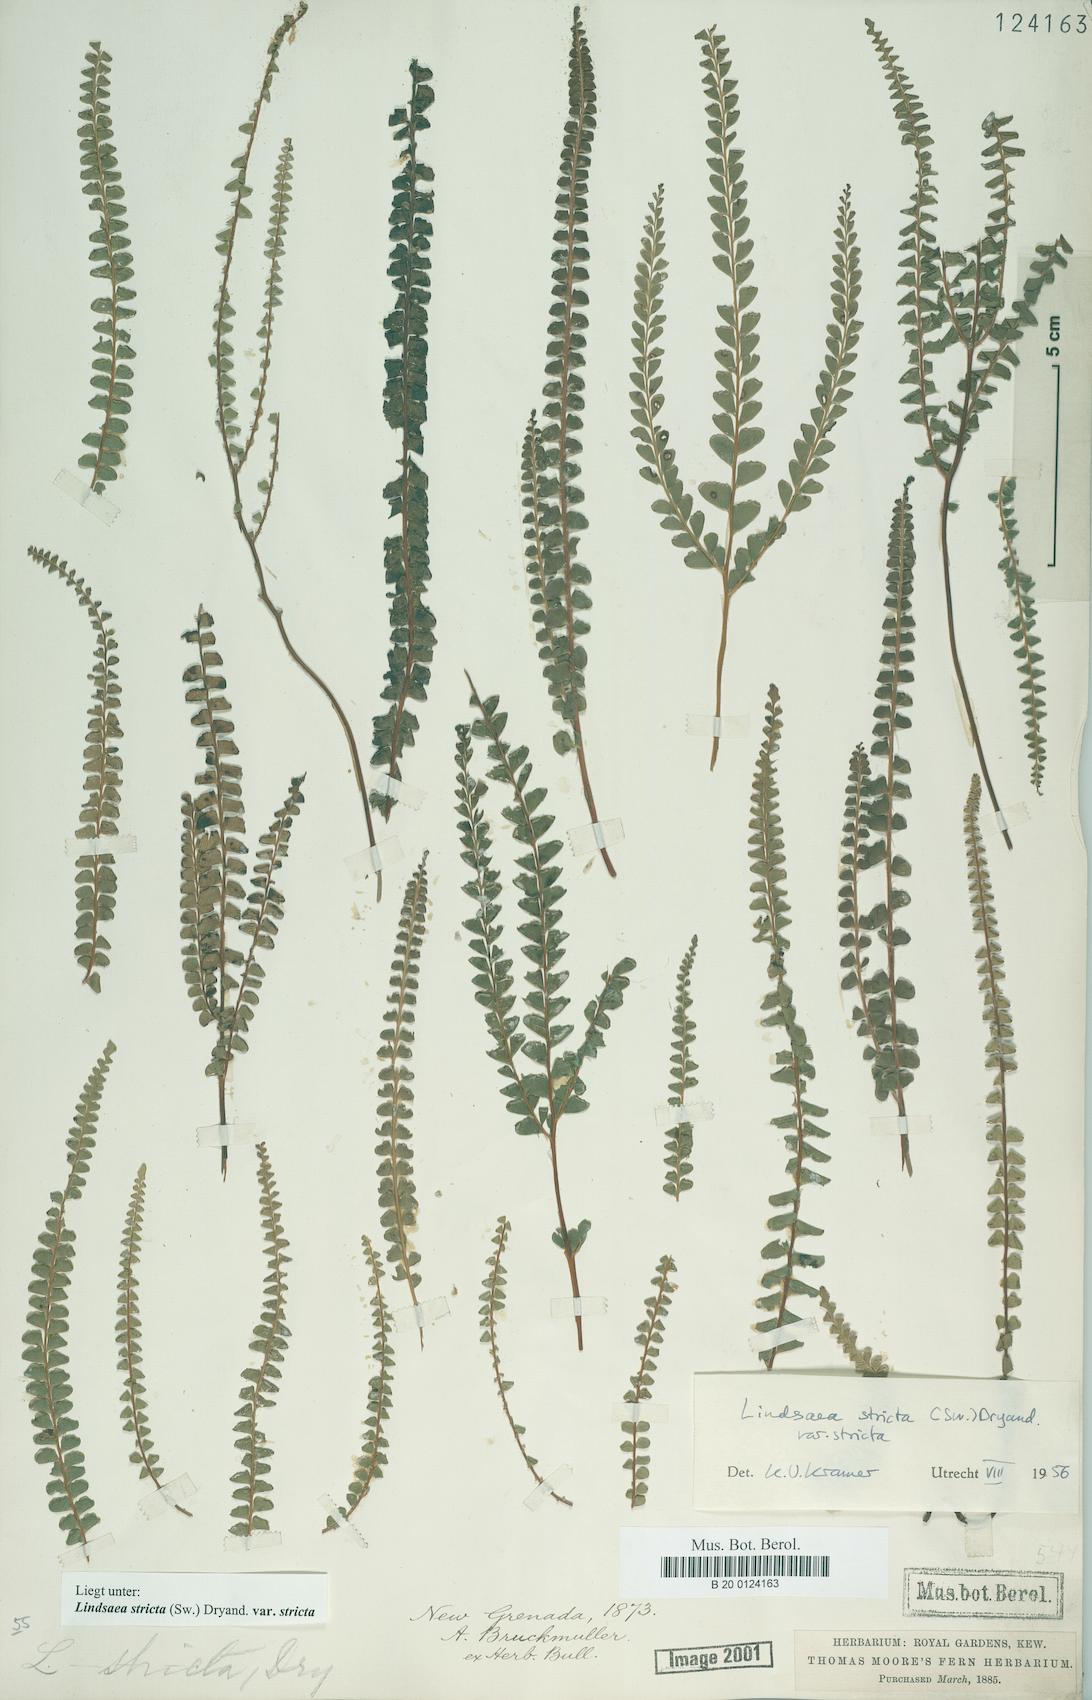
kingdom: Plantae
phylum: Tracheophyta
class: Polypodiopsida
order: Polypodiales
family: Lindsaeaceae
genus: Lindsaea
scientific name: Lindsaea stricta
